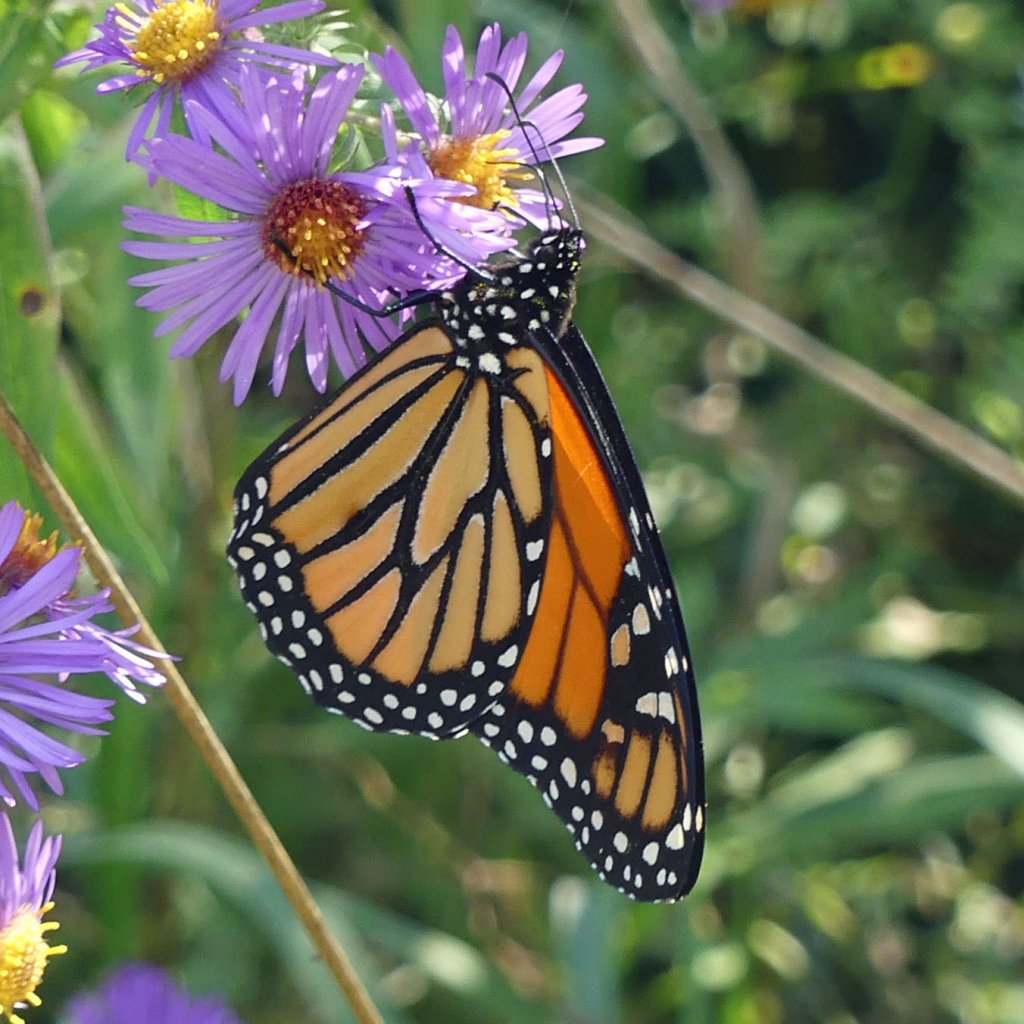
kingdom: Animalia
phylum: Arthropoda
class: Insecta
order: Lepidoptera
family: Nymphalidae
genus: Danaus
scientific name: Danaus plexippus
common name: Monarch
